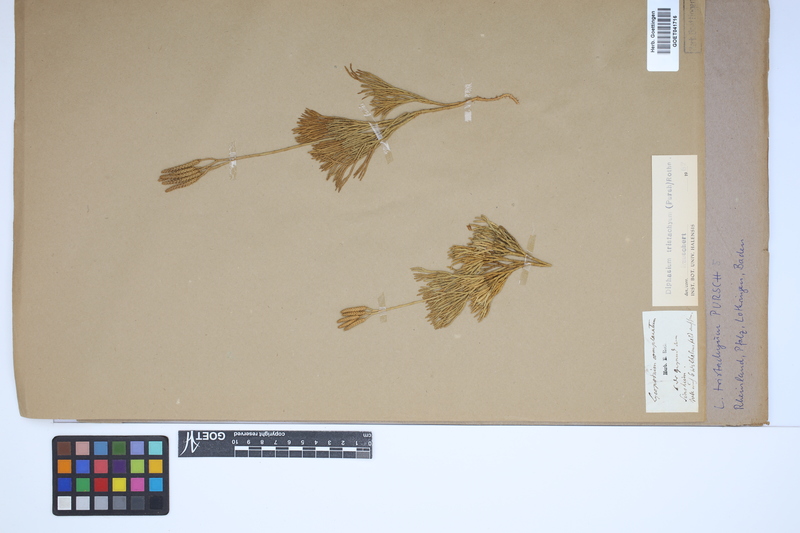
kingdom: Plantae
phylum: Tracheophyta
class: Lycopodiopsida
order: Lycopodiales
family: Lycopodiaceae
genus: Diphasiastrum
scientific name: Diphasiastrum tristachyum
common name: Blue ground-cedar
